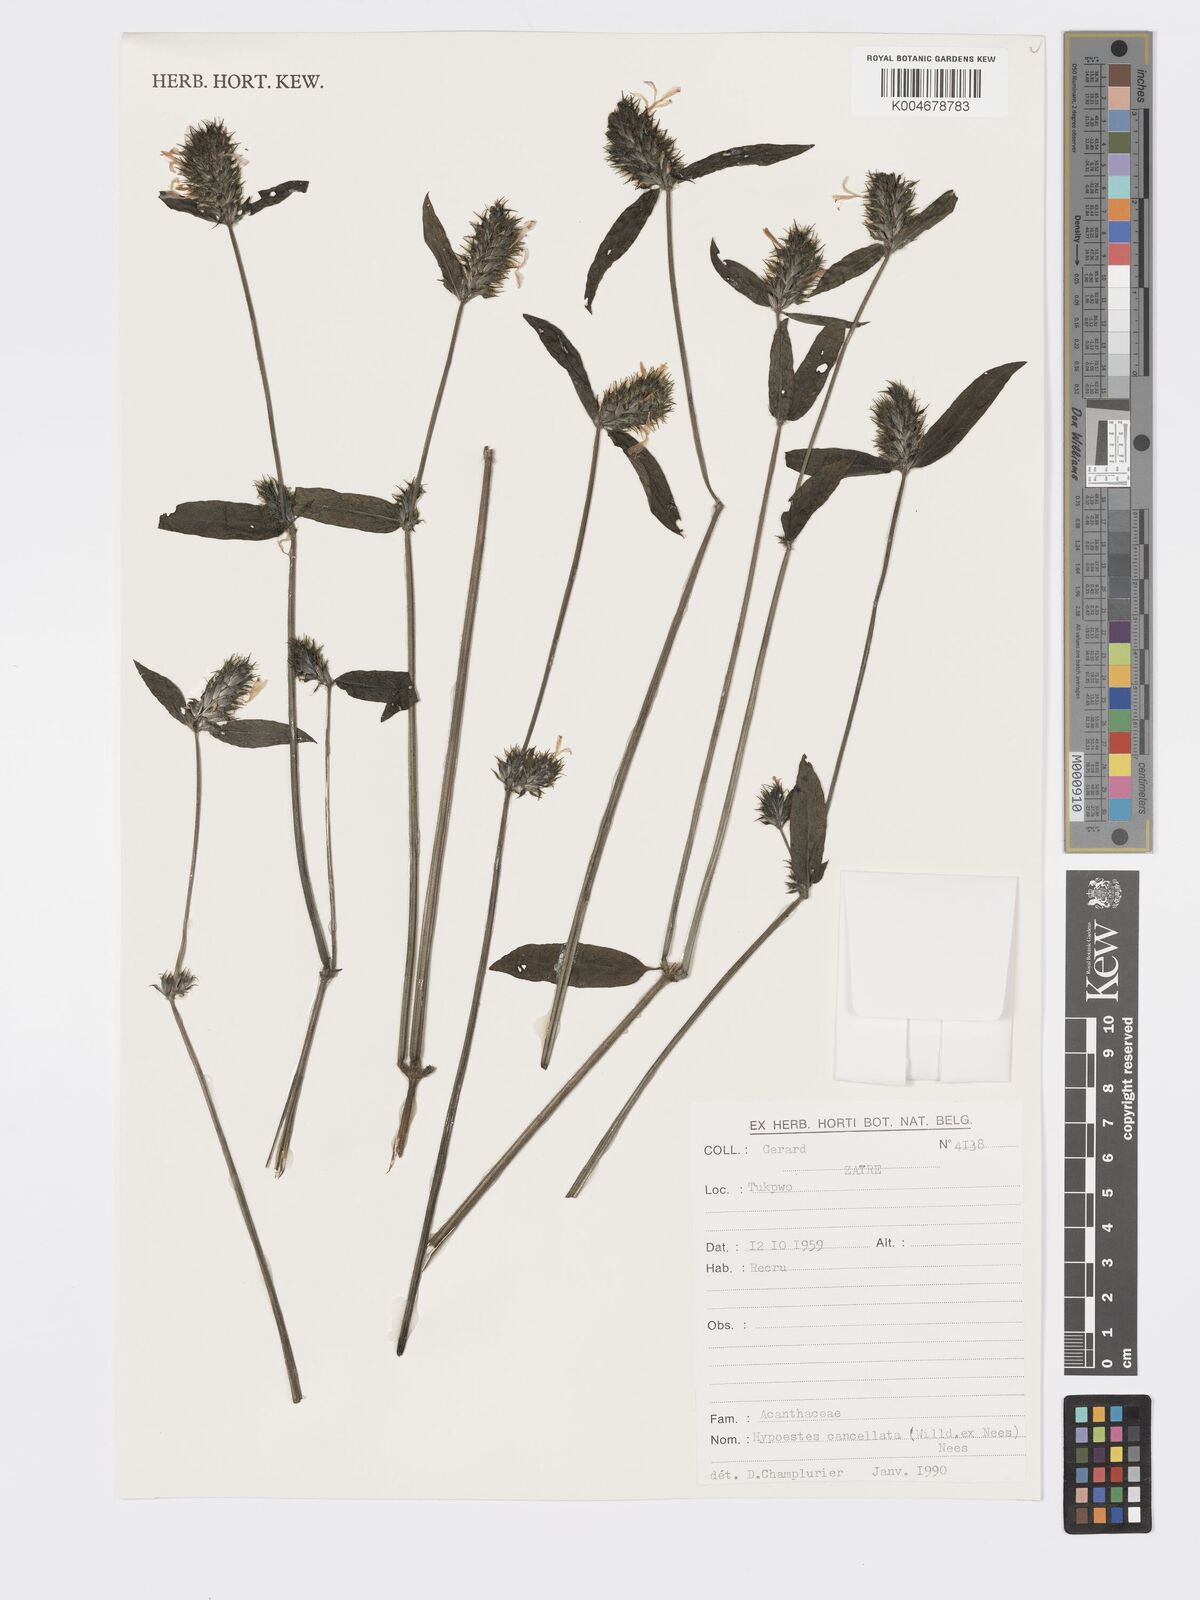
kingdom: Plantae
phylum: Tracheophyta
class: Magnoliopsida
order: Lamiales
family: Acanthaceae
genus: Hypoestes
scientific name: Hypoestes cancellata
